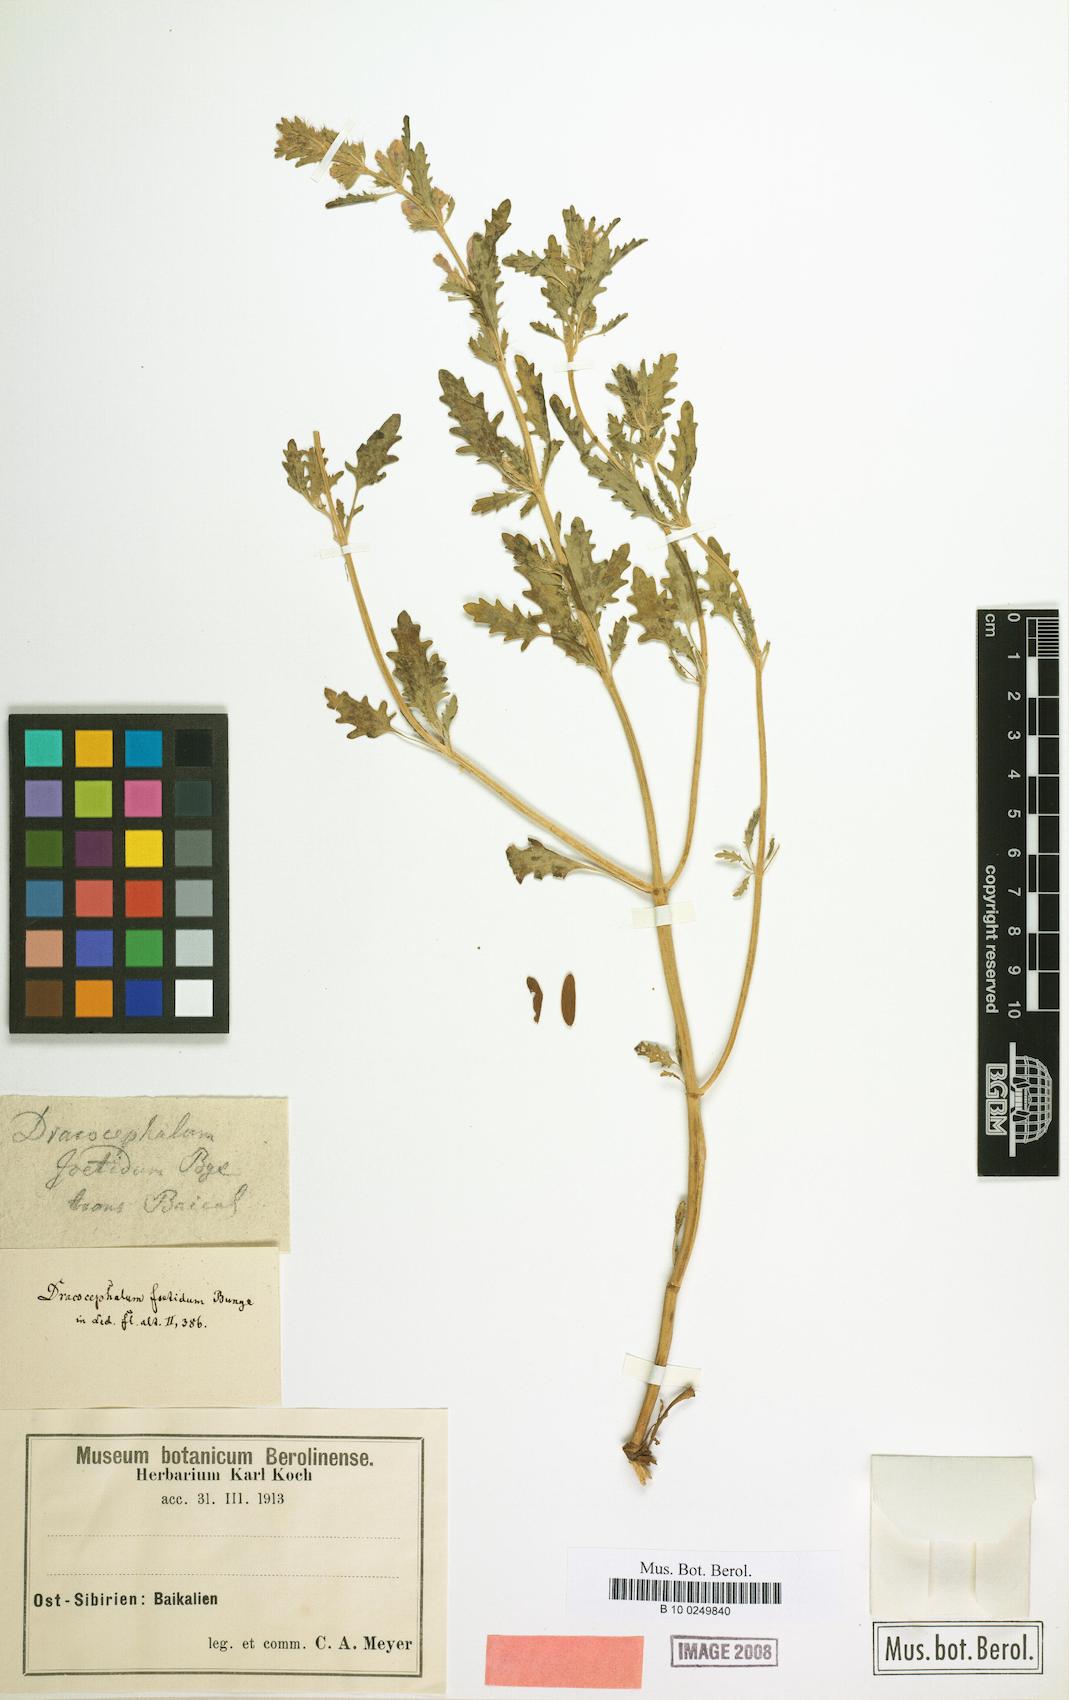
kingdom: Plantae
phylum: Tracheophyta
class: Magnoliopsida
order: Lamiales
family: Lamiaceae
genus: Dracocephalum
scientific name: Dracocephalum foetidum
